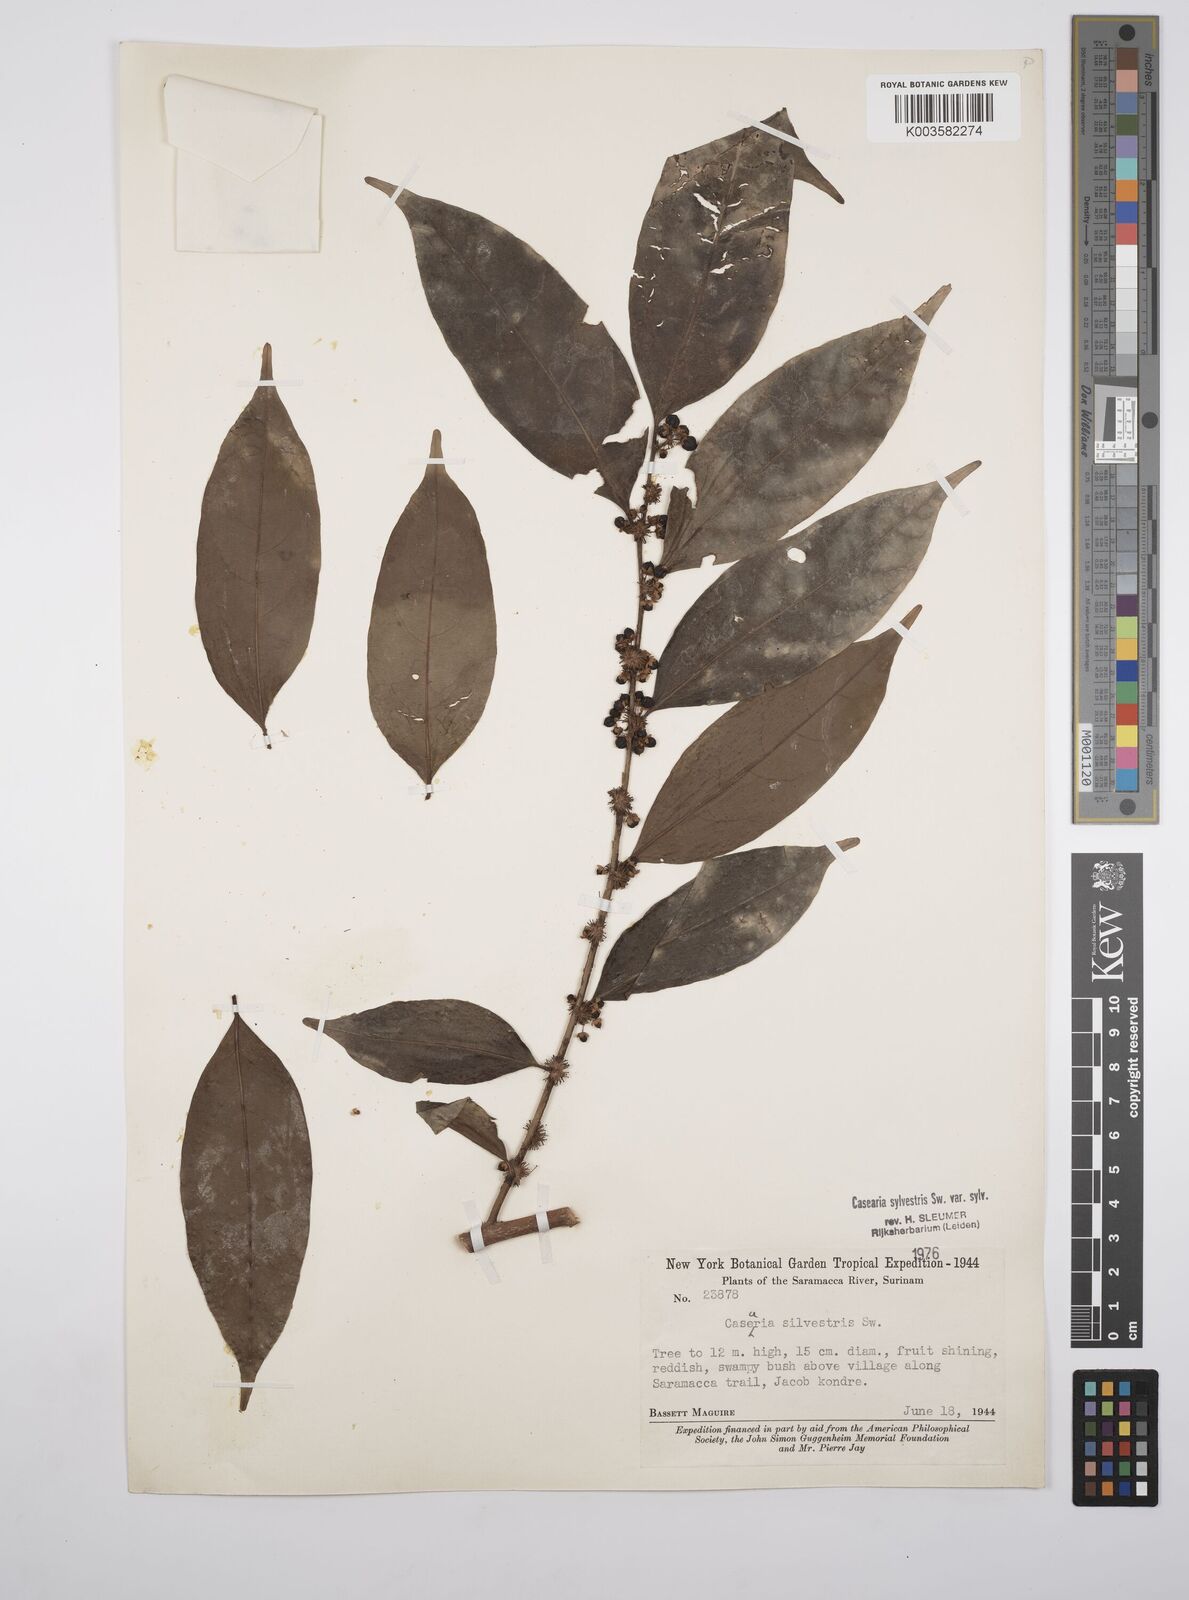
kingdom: Plantae
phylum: Tracheophyta
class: Magnoliopsida
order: Malpighiales
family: Salicaceae
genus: Casearia
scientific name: Casearia sylvestris
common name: Wild sage
